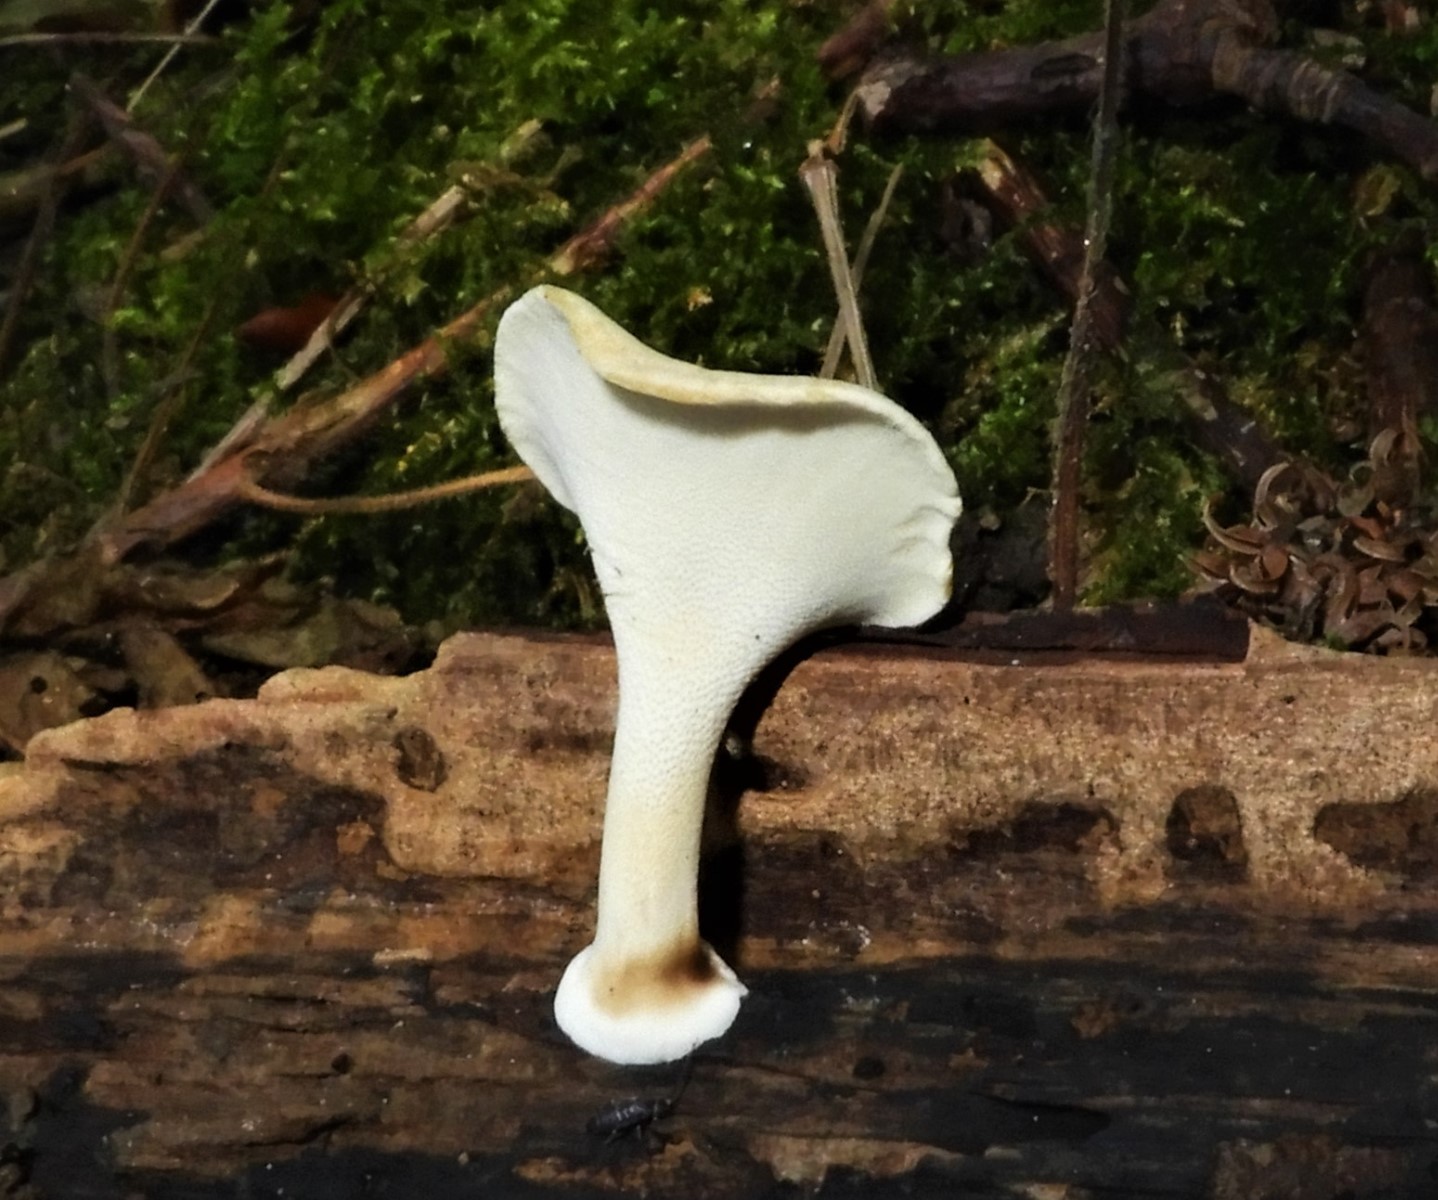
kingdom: Fungi
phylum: Basidiomycota
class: Agaricomycetes
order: Polyporales
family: Polyporaceae
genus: Cerioporus
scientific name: Cerioporus varius
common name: foranderlig stilkporesvamp
